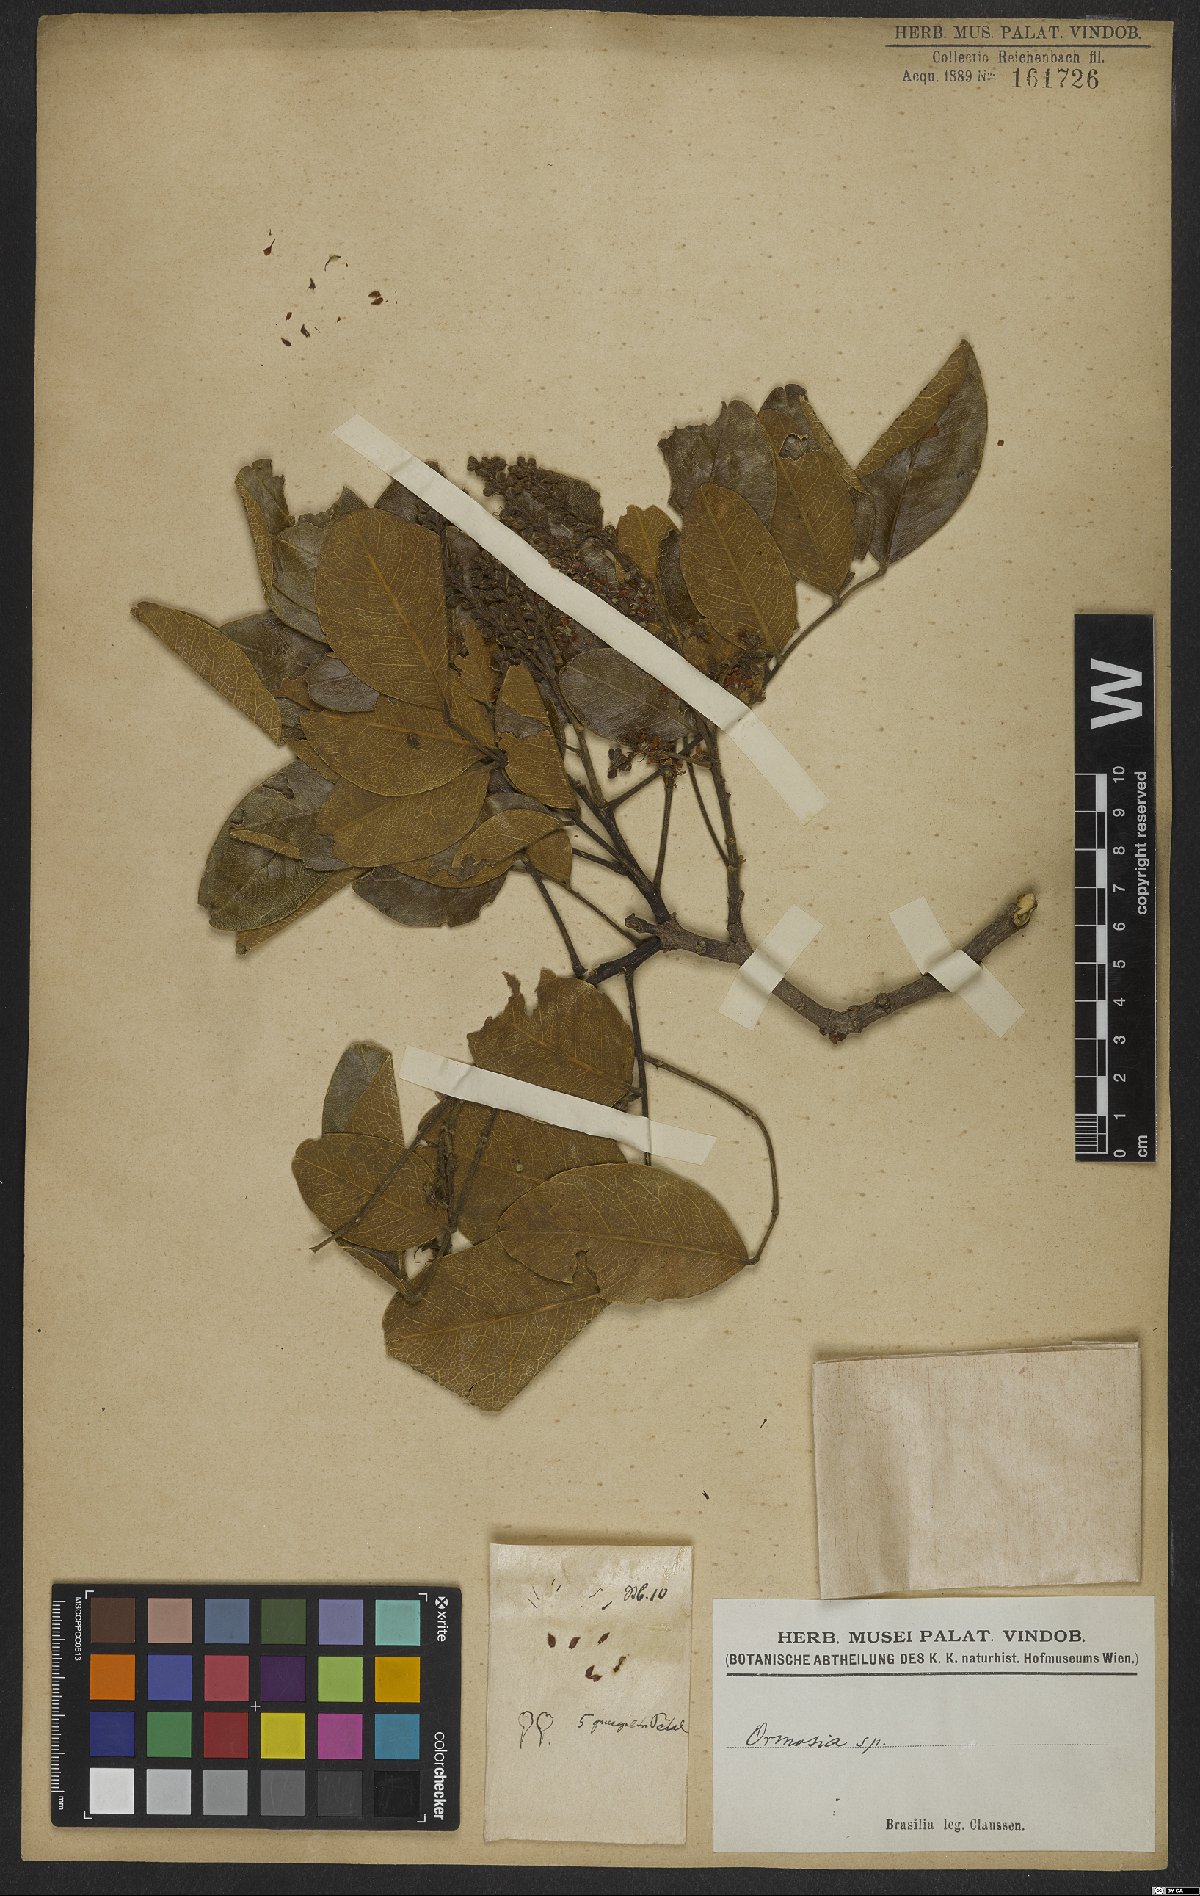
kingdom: Plantae
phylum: Tracheophyta
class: Magnoliopsida
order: Fabales
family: Fabaceae
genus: Ormosia
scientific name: Ormosia
